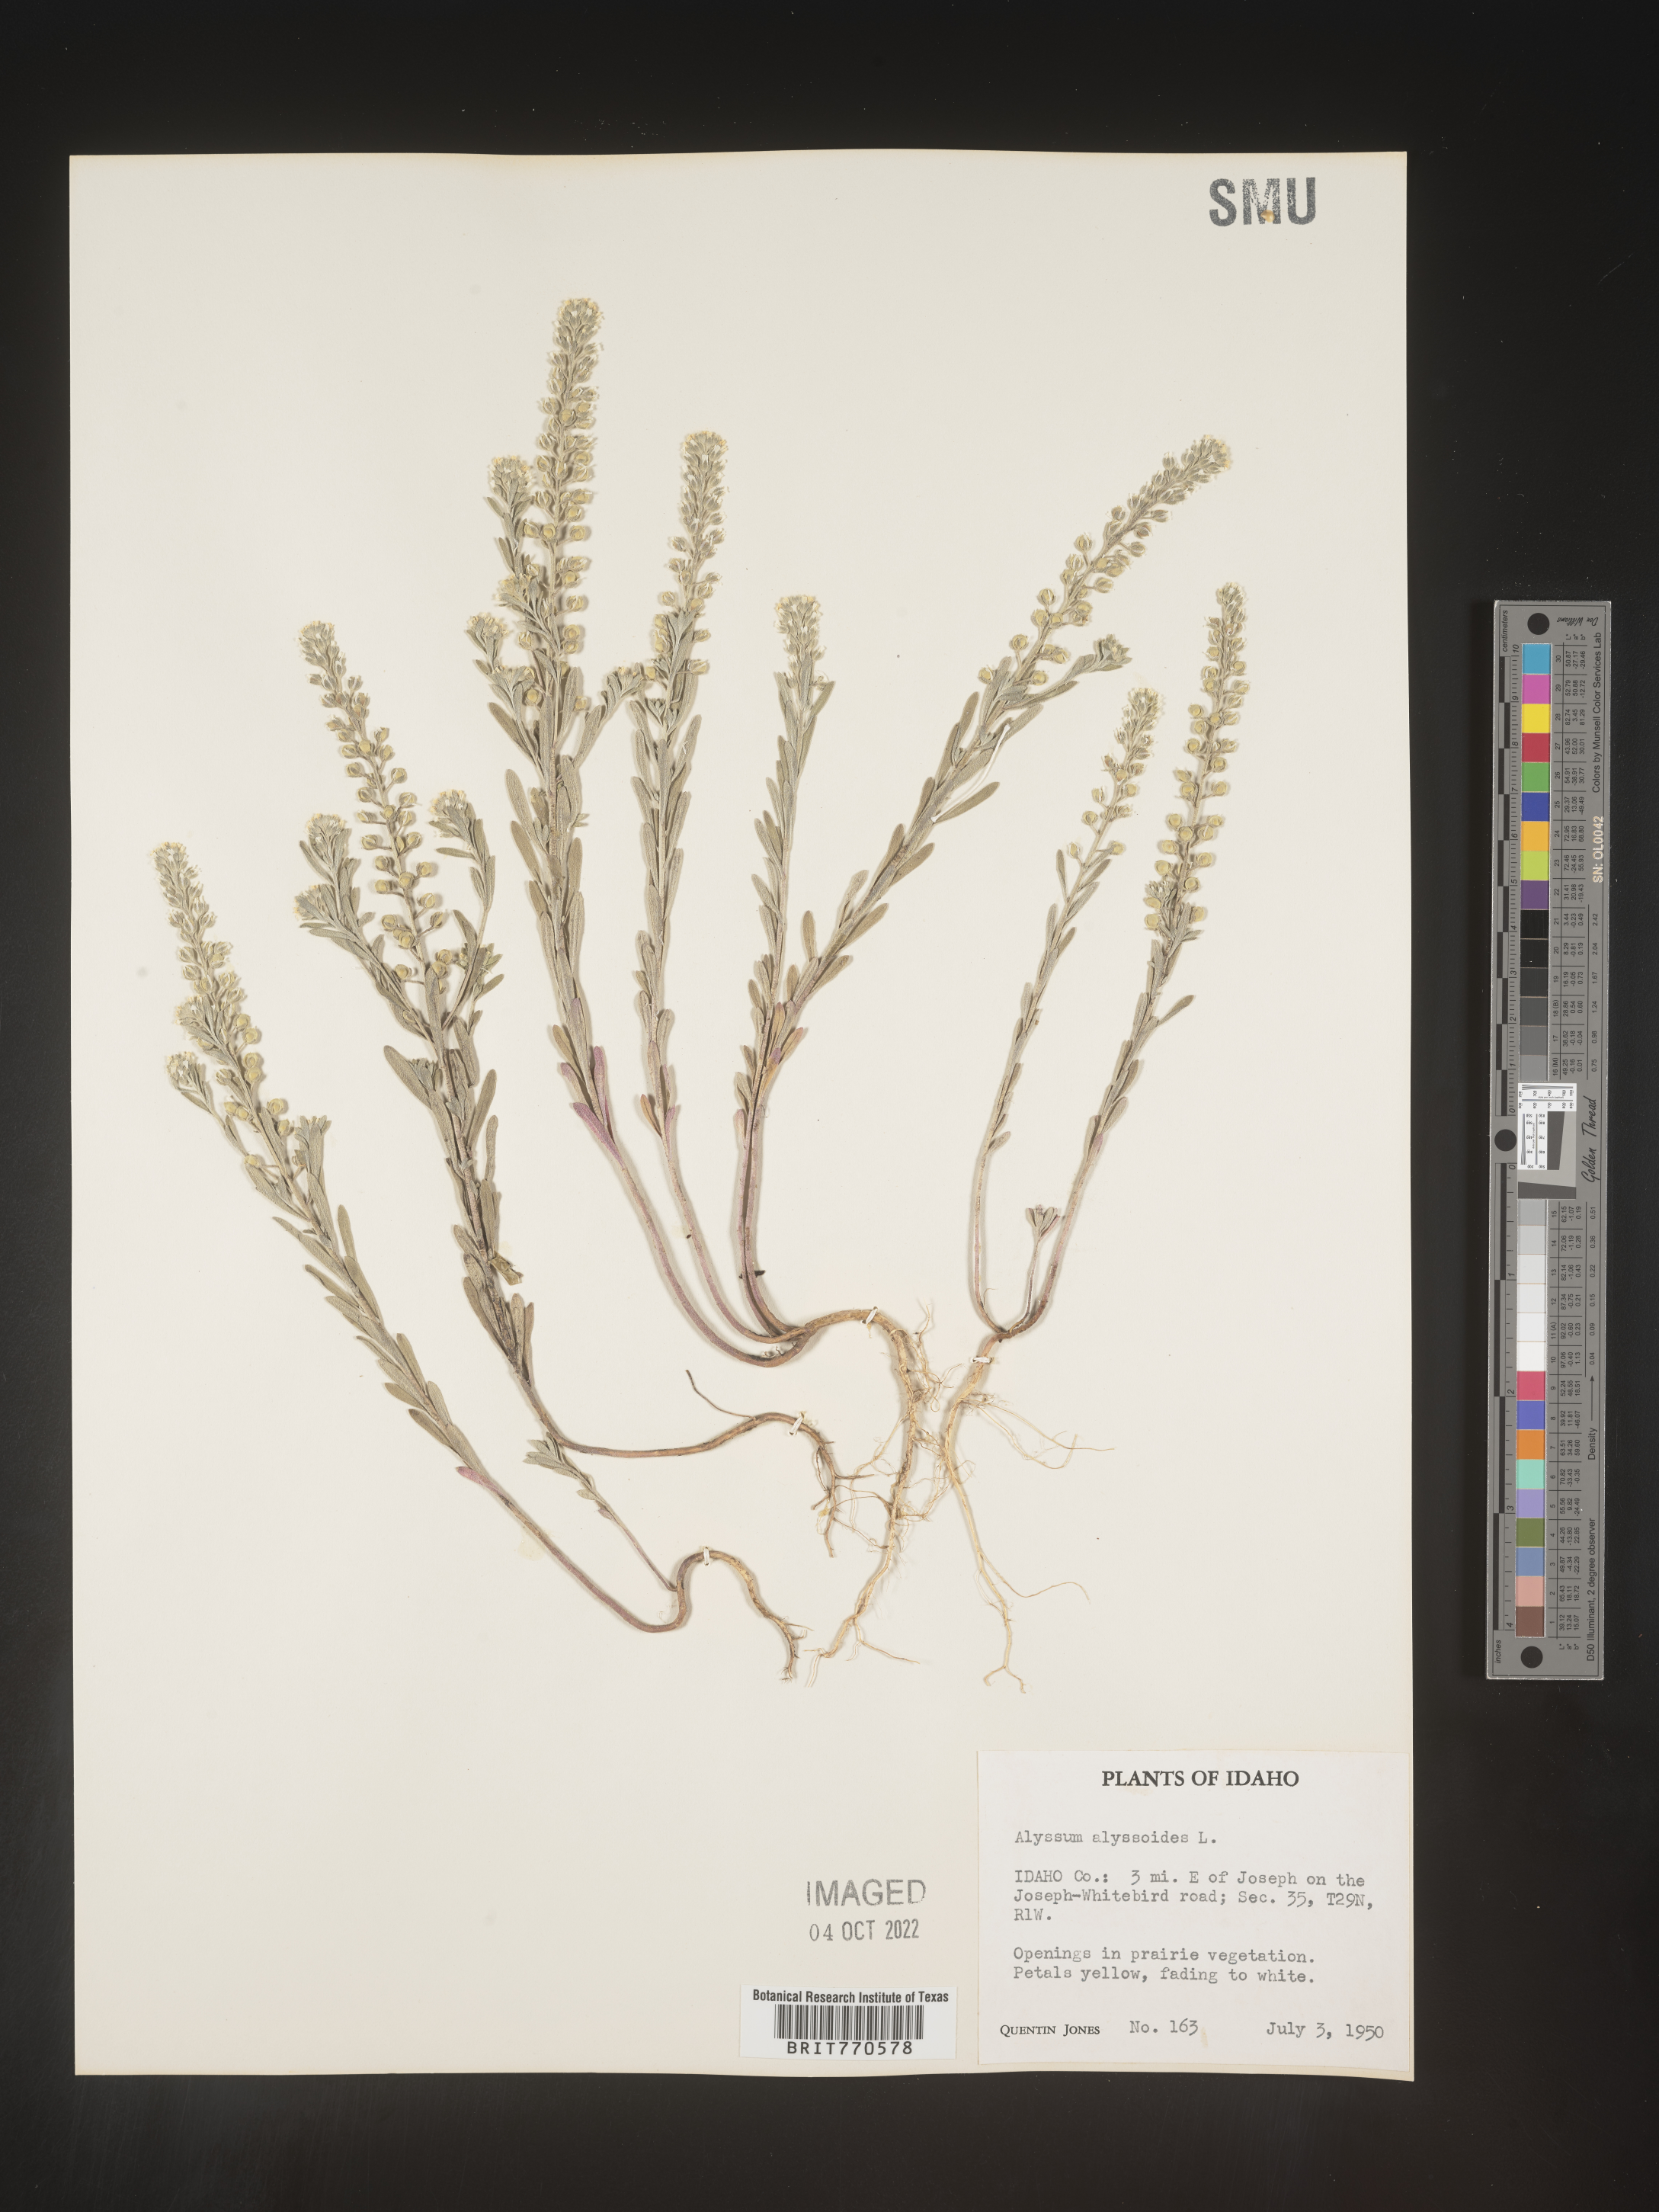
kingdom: Plantae
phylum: Tracheophyta
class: Magnoliopsida
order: Brassicales
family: Brassicaceae
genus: Alyssum
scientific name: Alyssum alyssoides
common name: Small alison
